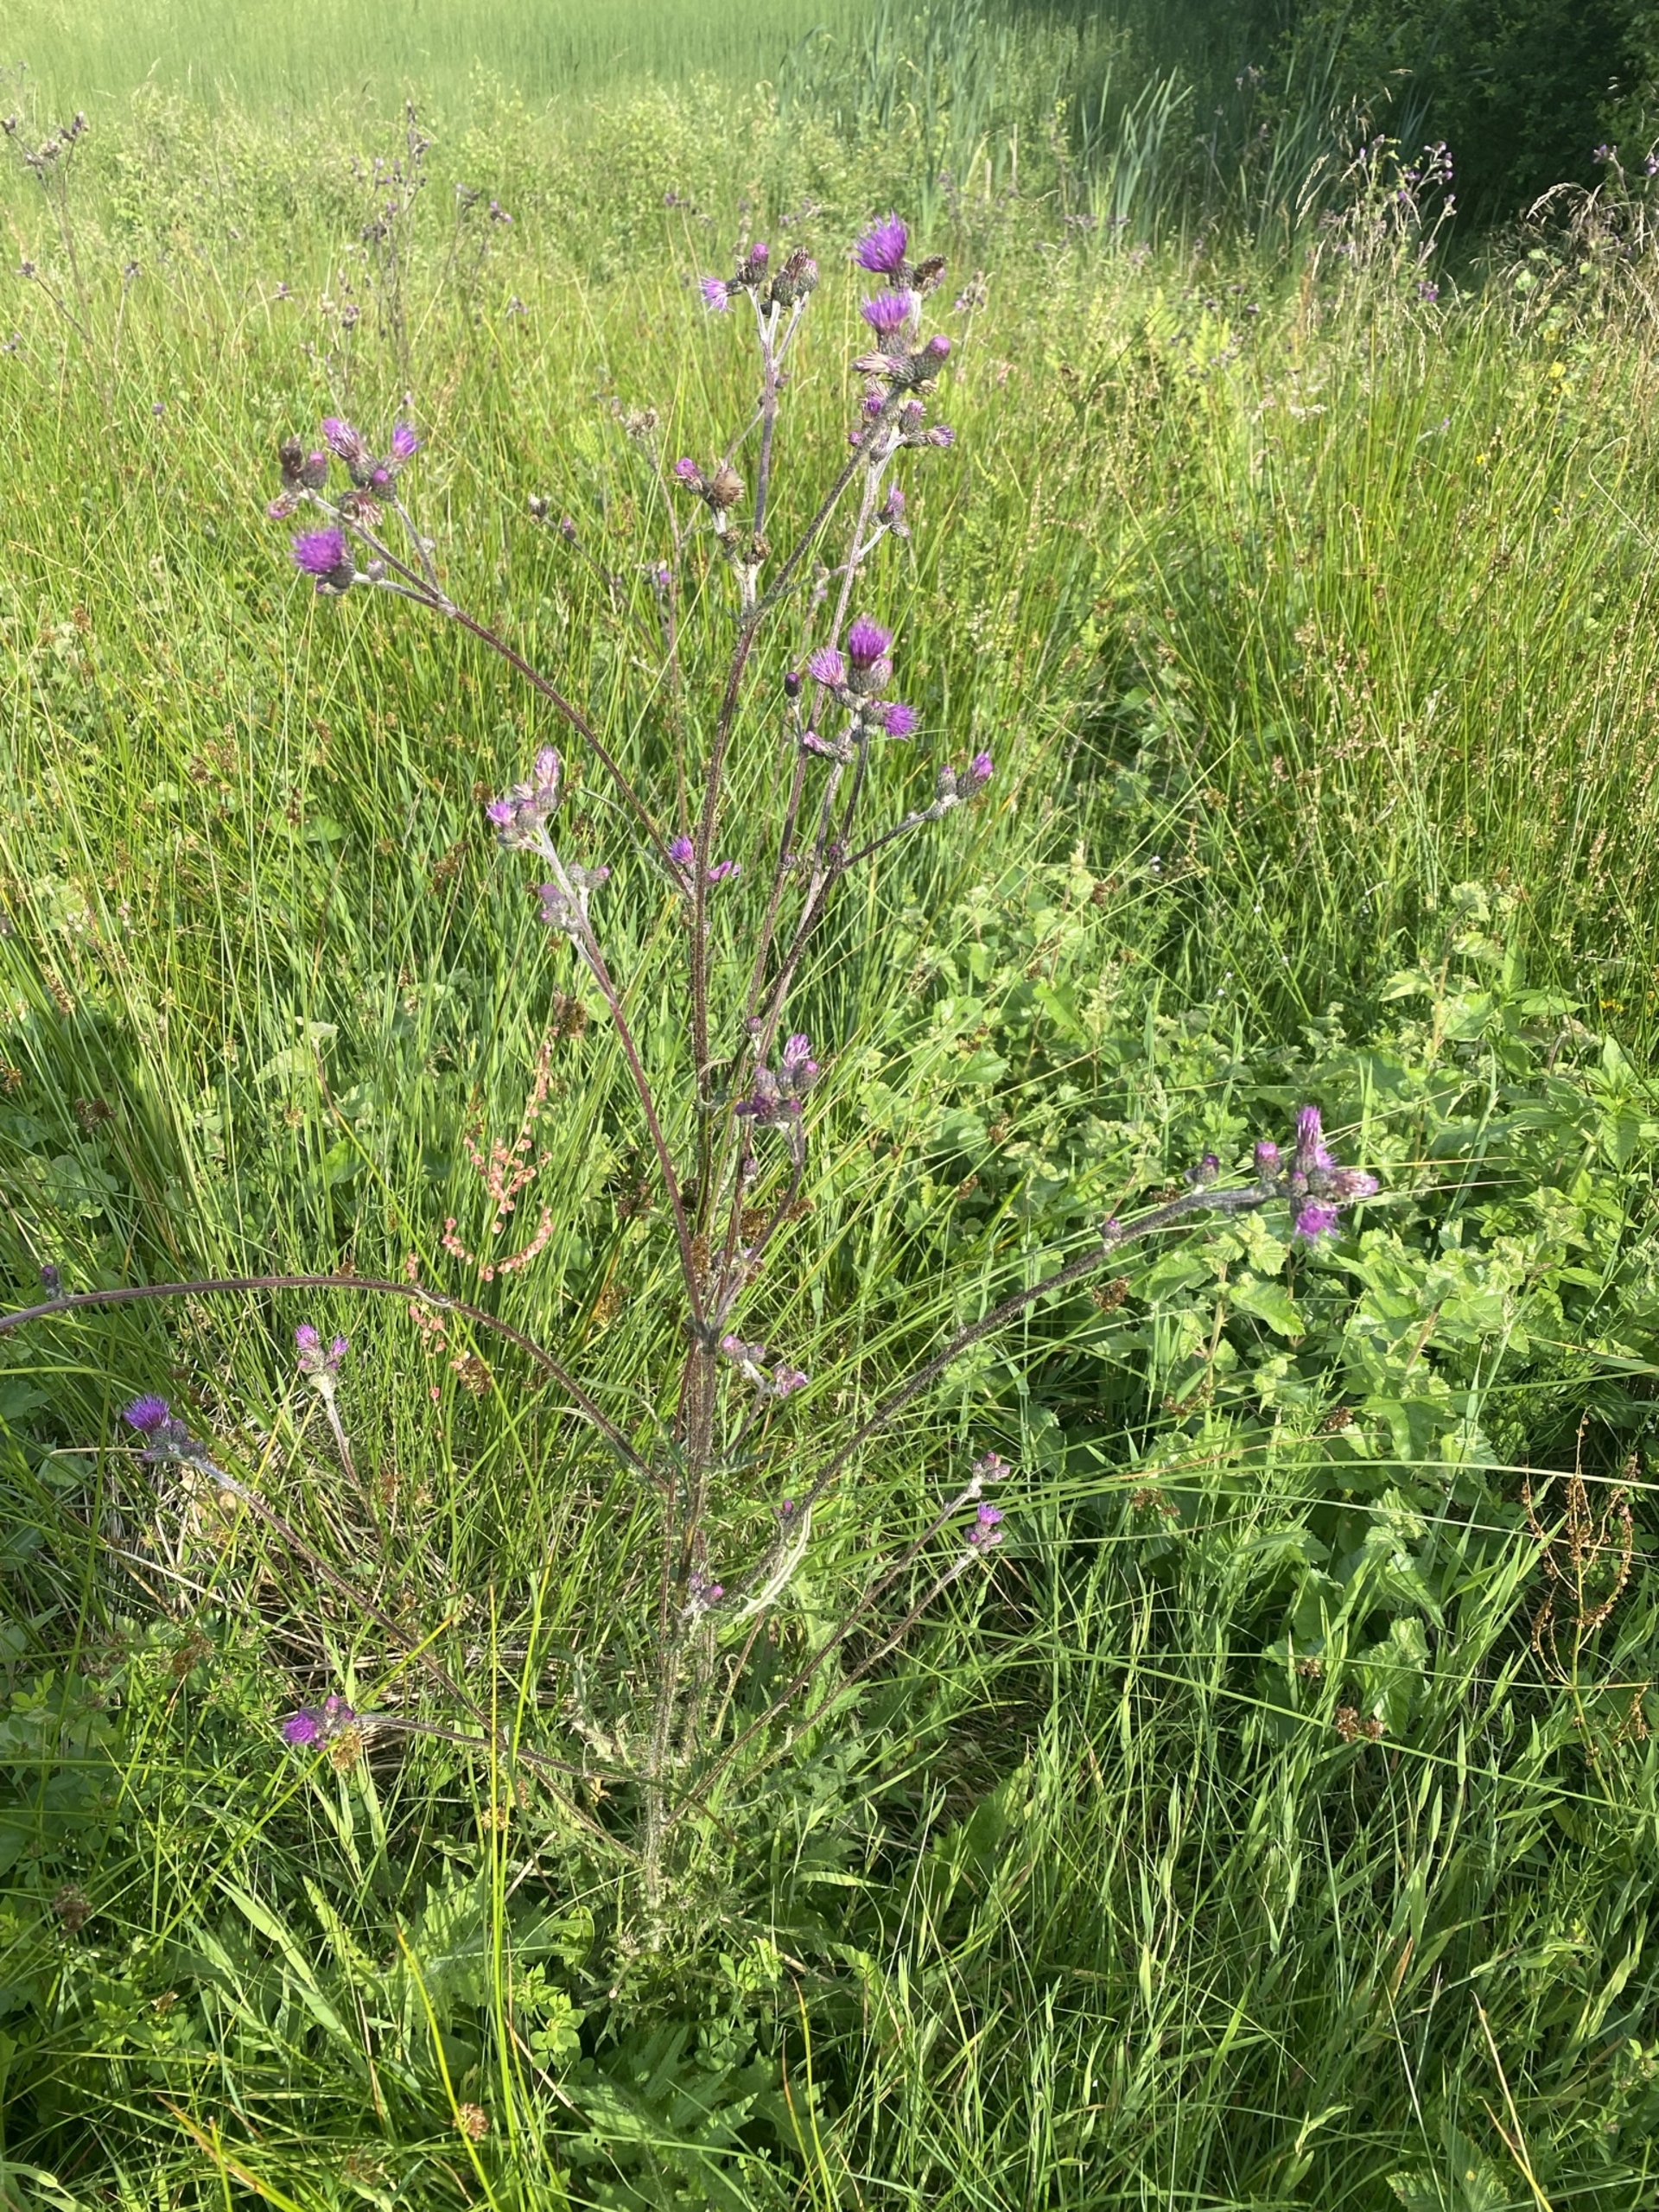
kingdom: Plantae
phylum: Tracheophyta
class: Magnoliopsida
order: Asterales
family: Asteraceae
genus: Cirsium
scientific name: Cirsium palustre
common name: Kær-tidsel
